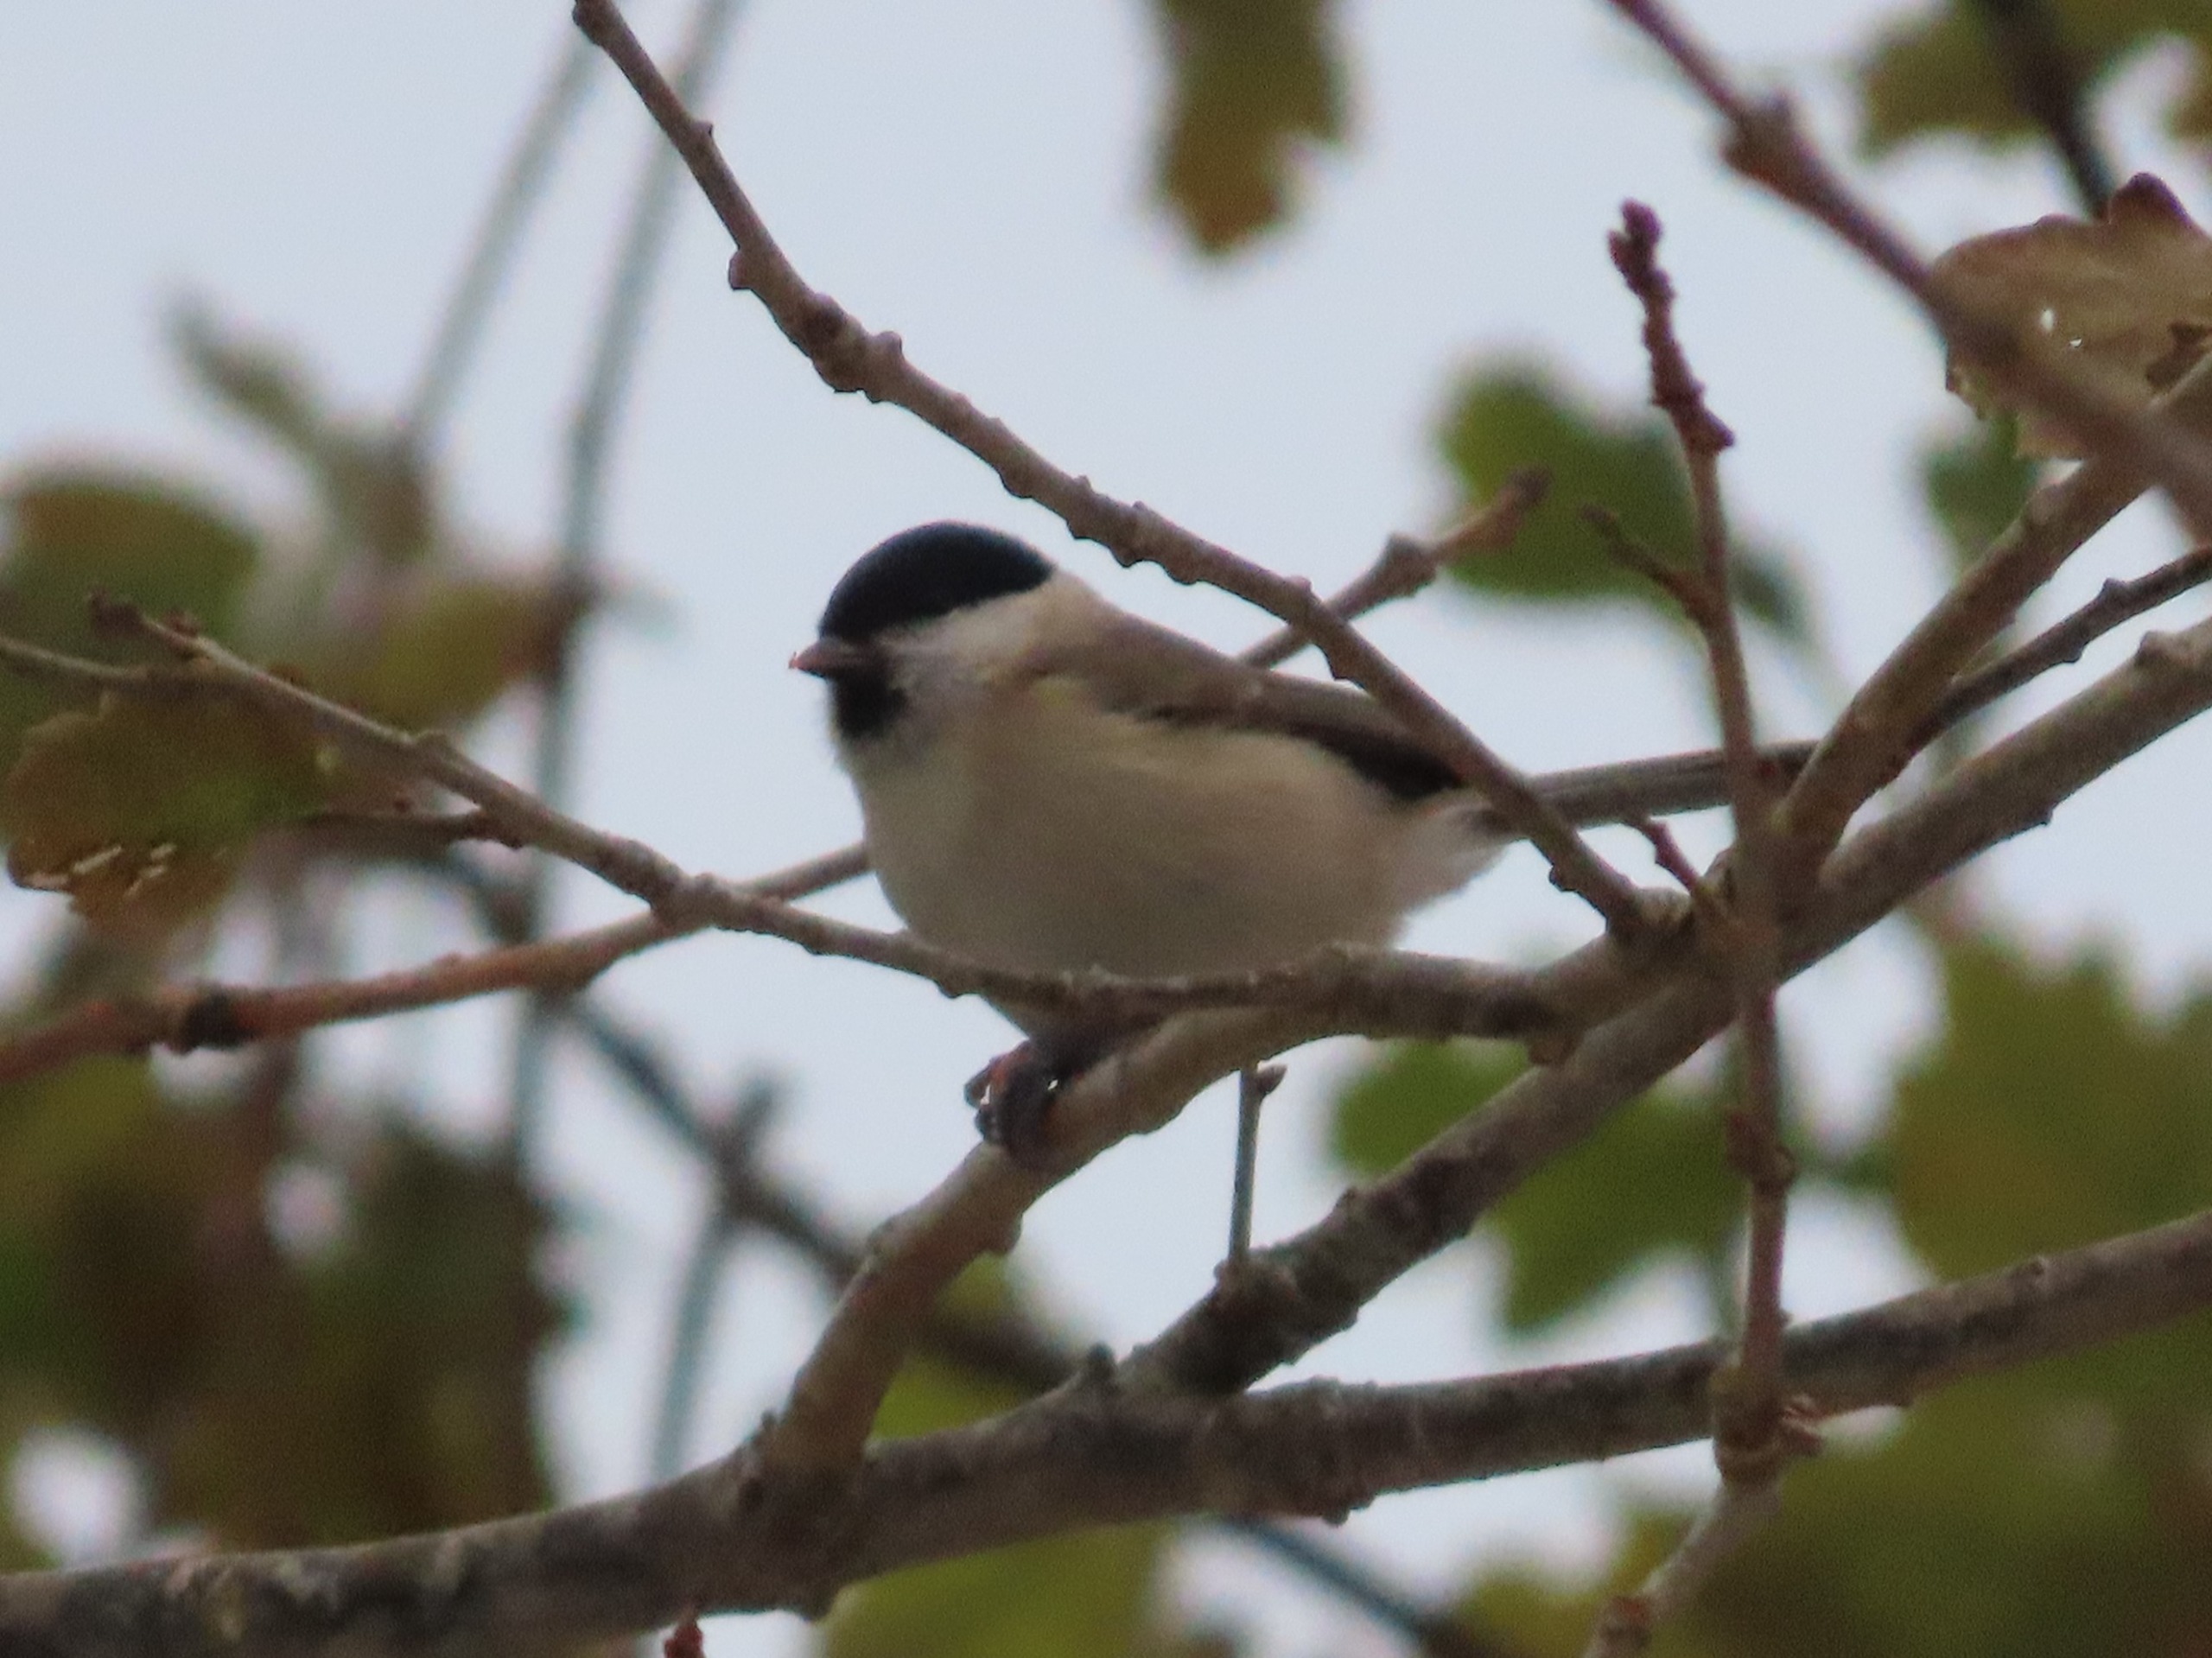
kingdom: Animalia
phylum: Chordata
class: Aves
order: Passeriformes
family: Paridae
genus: Poecile
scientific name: Poecile palustris
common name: Sumpmejse
